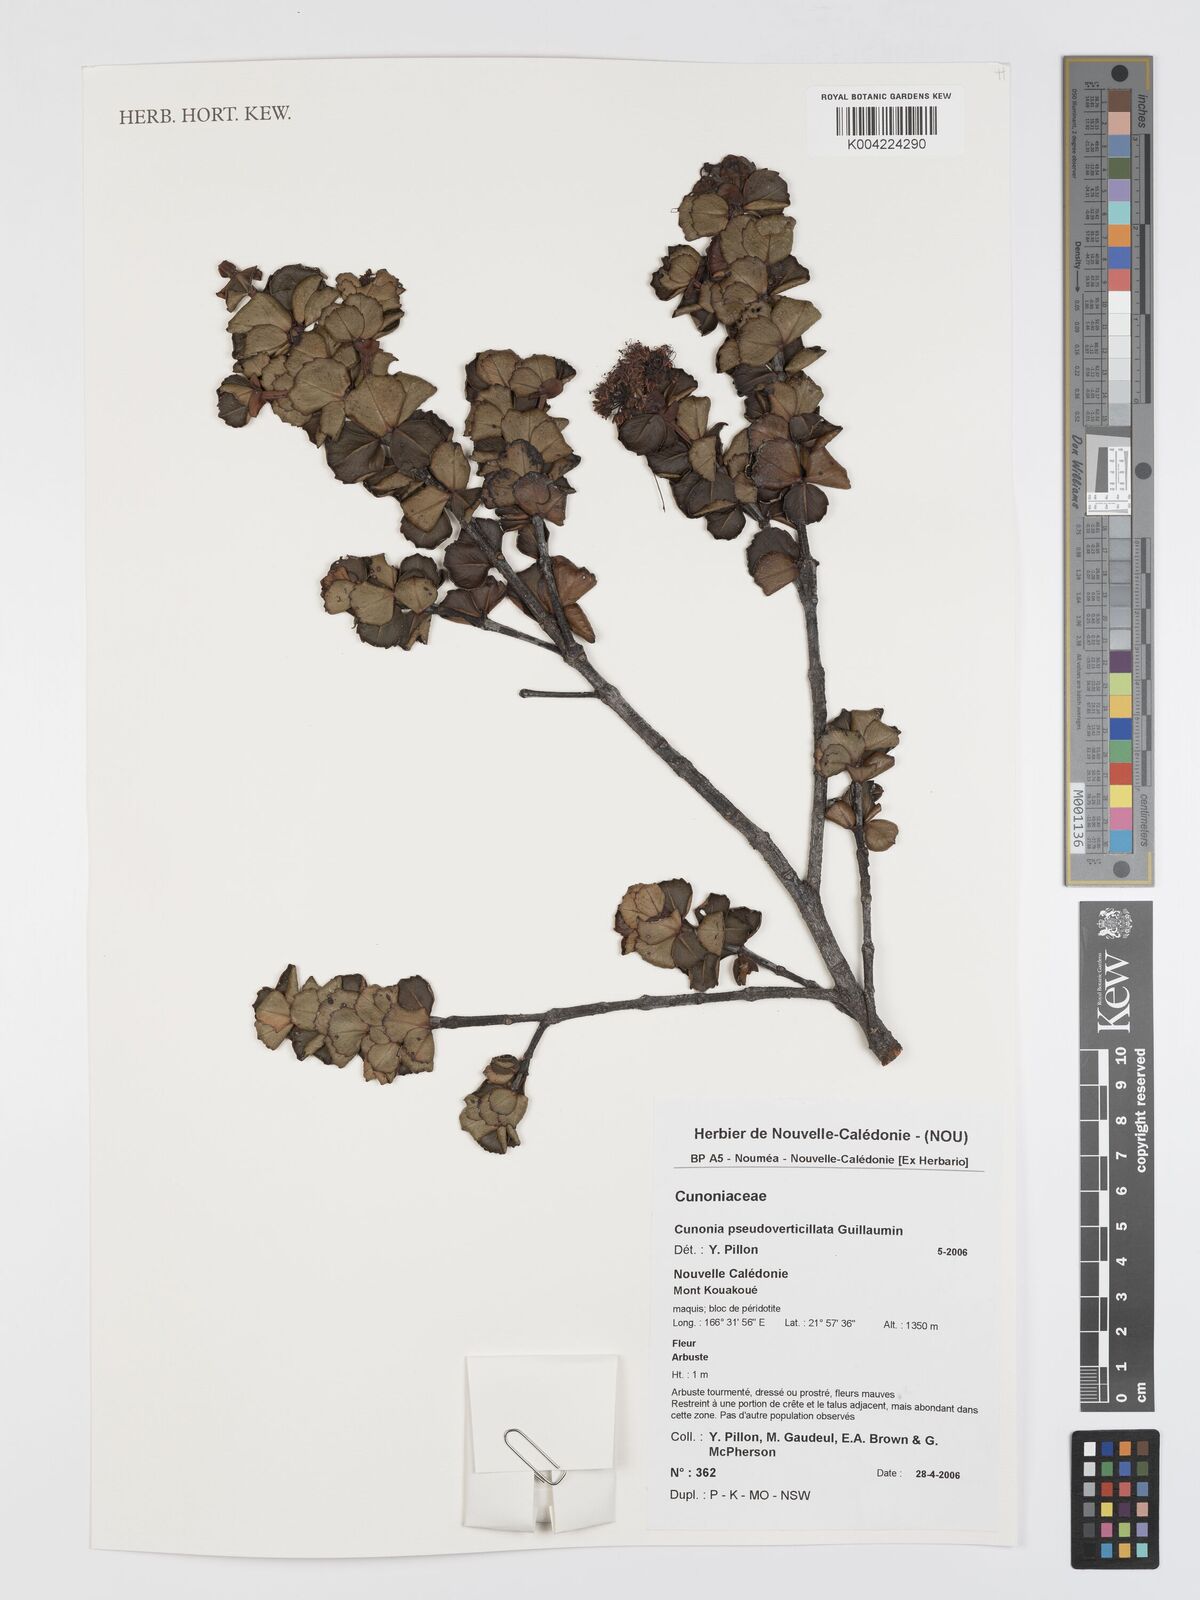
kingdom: Plantae
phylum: Tracheophyta
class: Magnoliopsida
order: Oxalidales
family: Cunoniaceae
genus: Cunonia
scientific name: Cunonia pseudoverticillata
